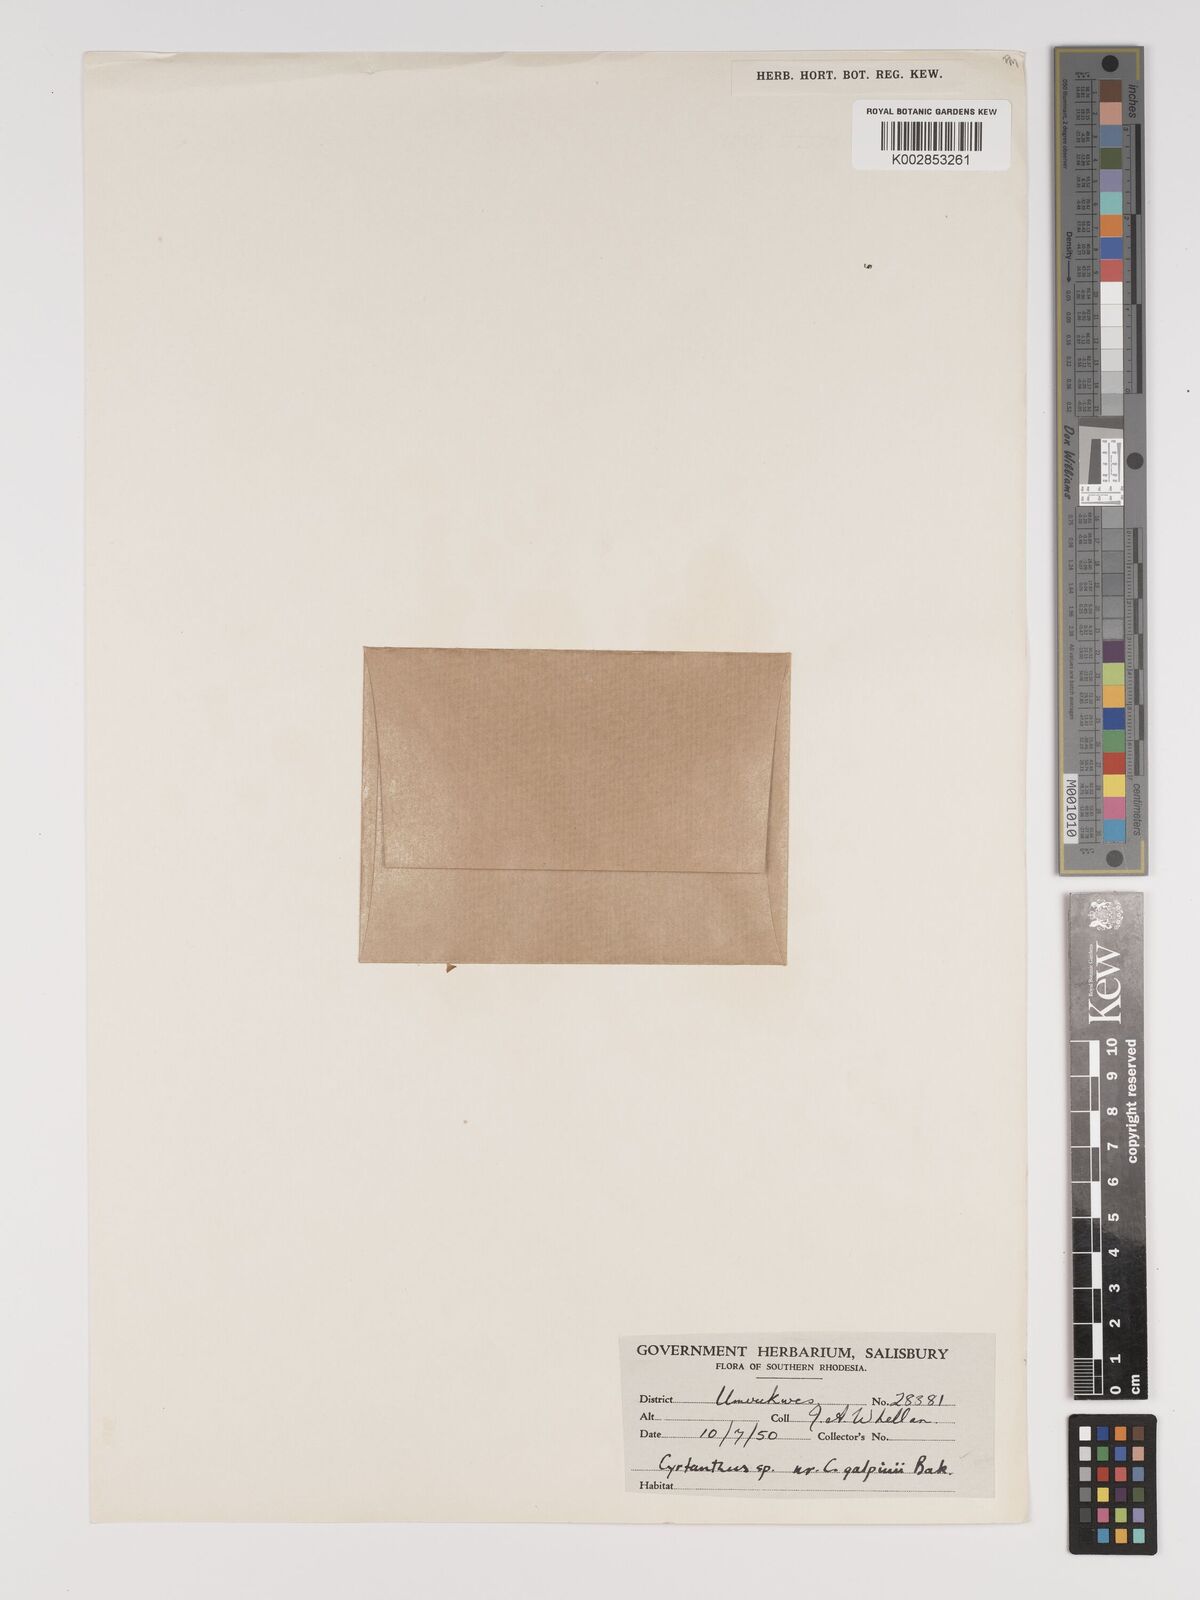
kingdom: Plantae
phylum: Tracheophyta
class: Liliopsida
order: Asparagales
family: Amaryllidaceae
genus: Cyrtanthus
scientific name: Cyrtanthus galpinii
